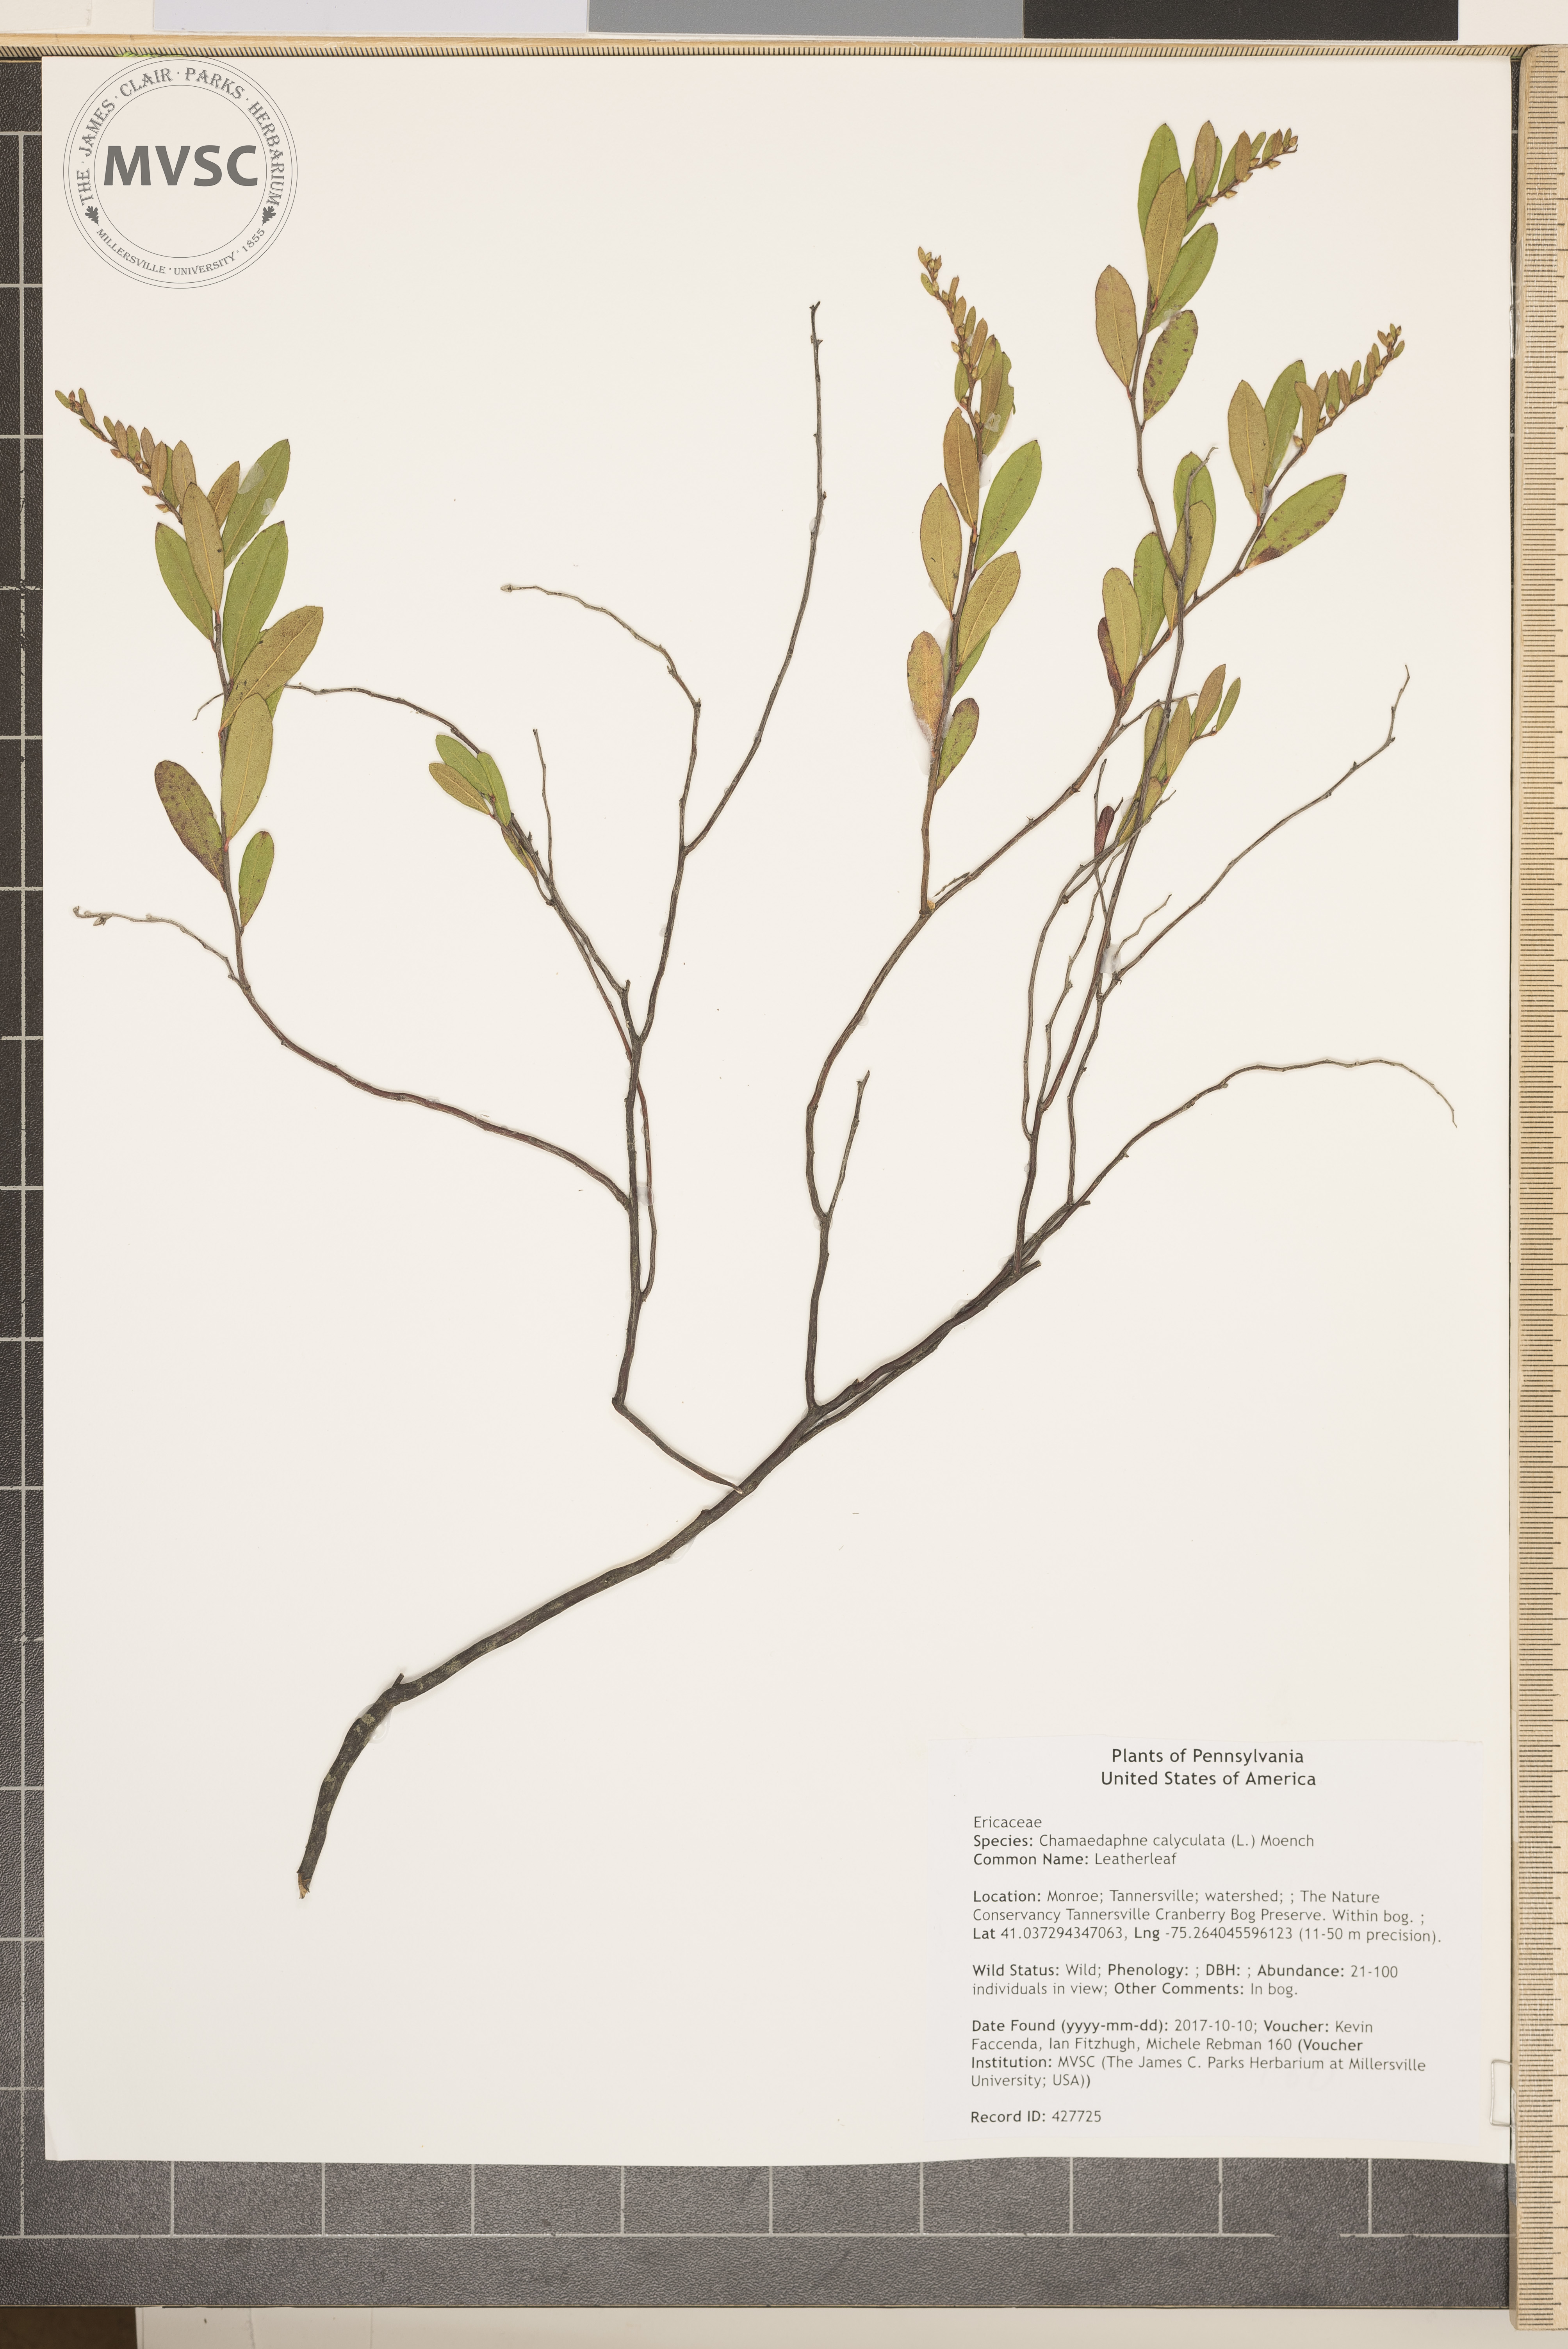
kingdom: Plantae
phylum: Tracheophyta
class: Magnoliopsida
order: Ericales
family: Ericaceae
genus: Chamaedaphne
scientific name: Chamaedaphne calyculata
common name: Leatherleaf
